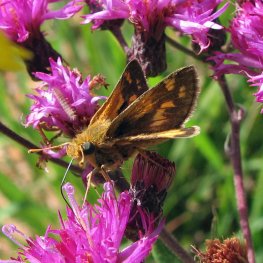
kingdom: Animalia
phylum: Arthropoda
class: Insecta
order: Lepidoptera
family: Hesperiidae
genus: Polites
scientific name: Polites coras
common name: Peck's Skipper
